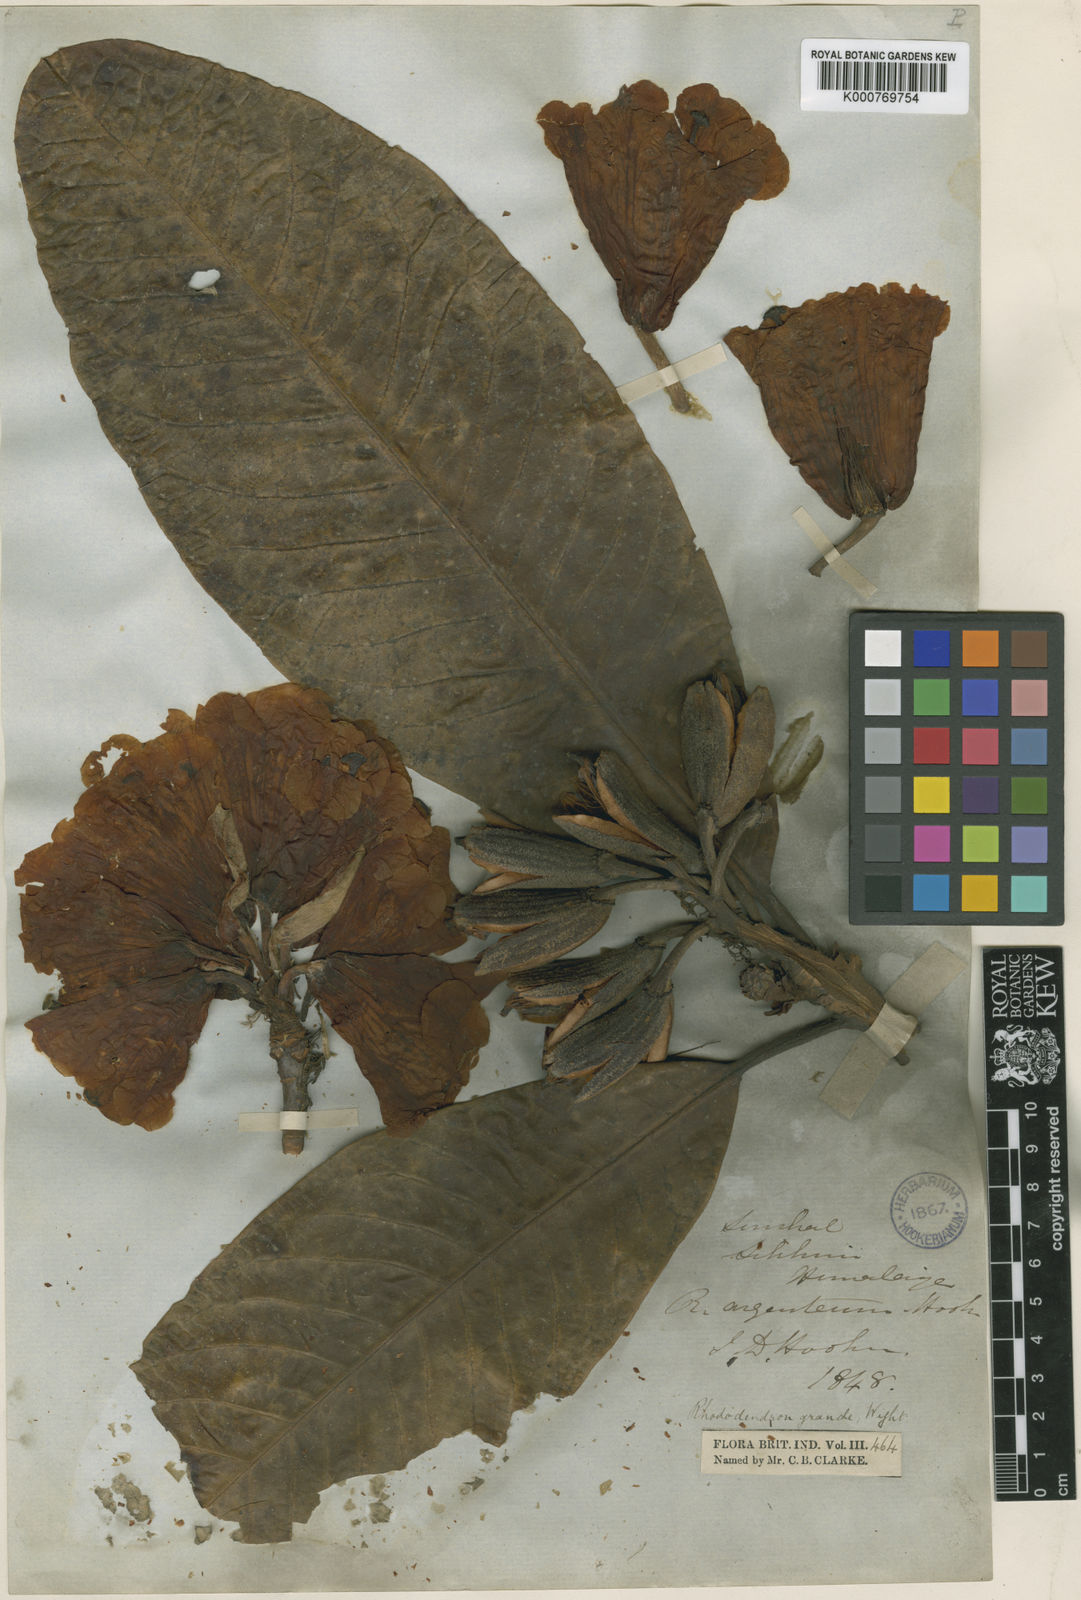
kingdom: Plantae
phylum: Tracheophyta
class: Magnoliopsida
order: Ericales
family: Ericaceae
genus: Rhododendron
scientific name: Rhododendron grande
